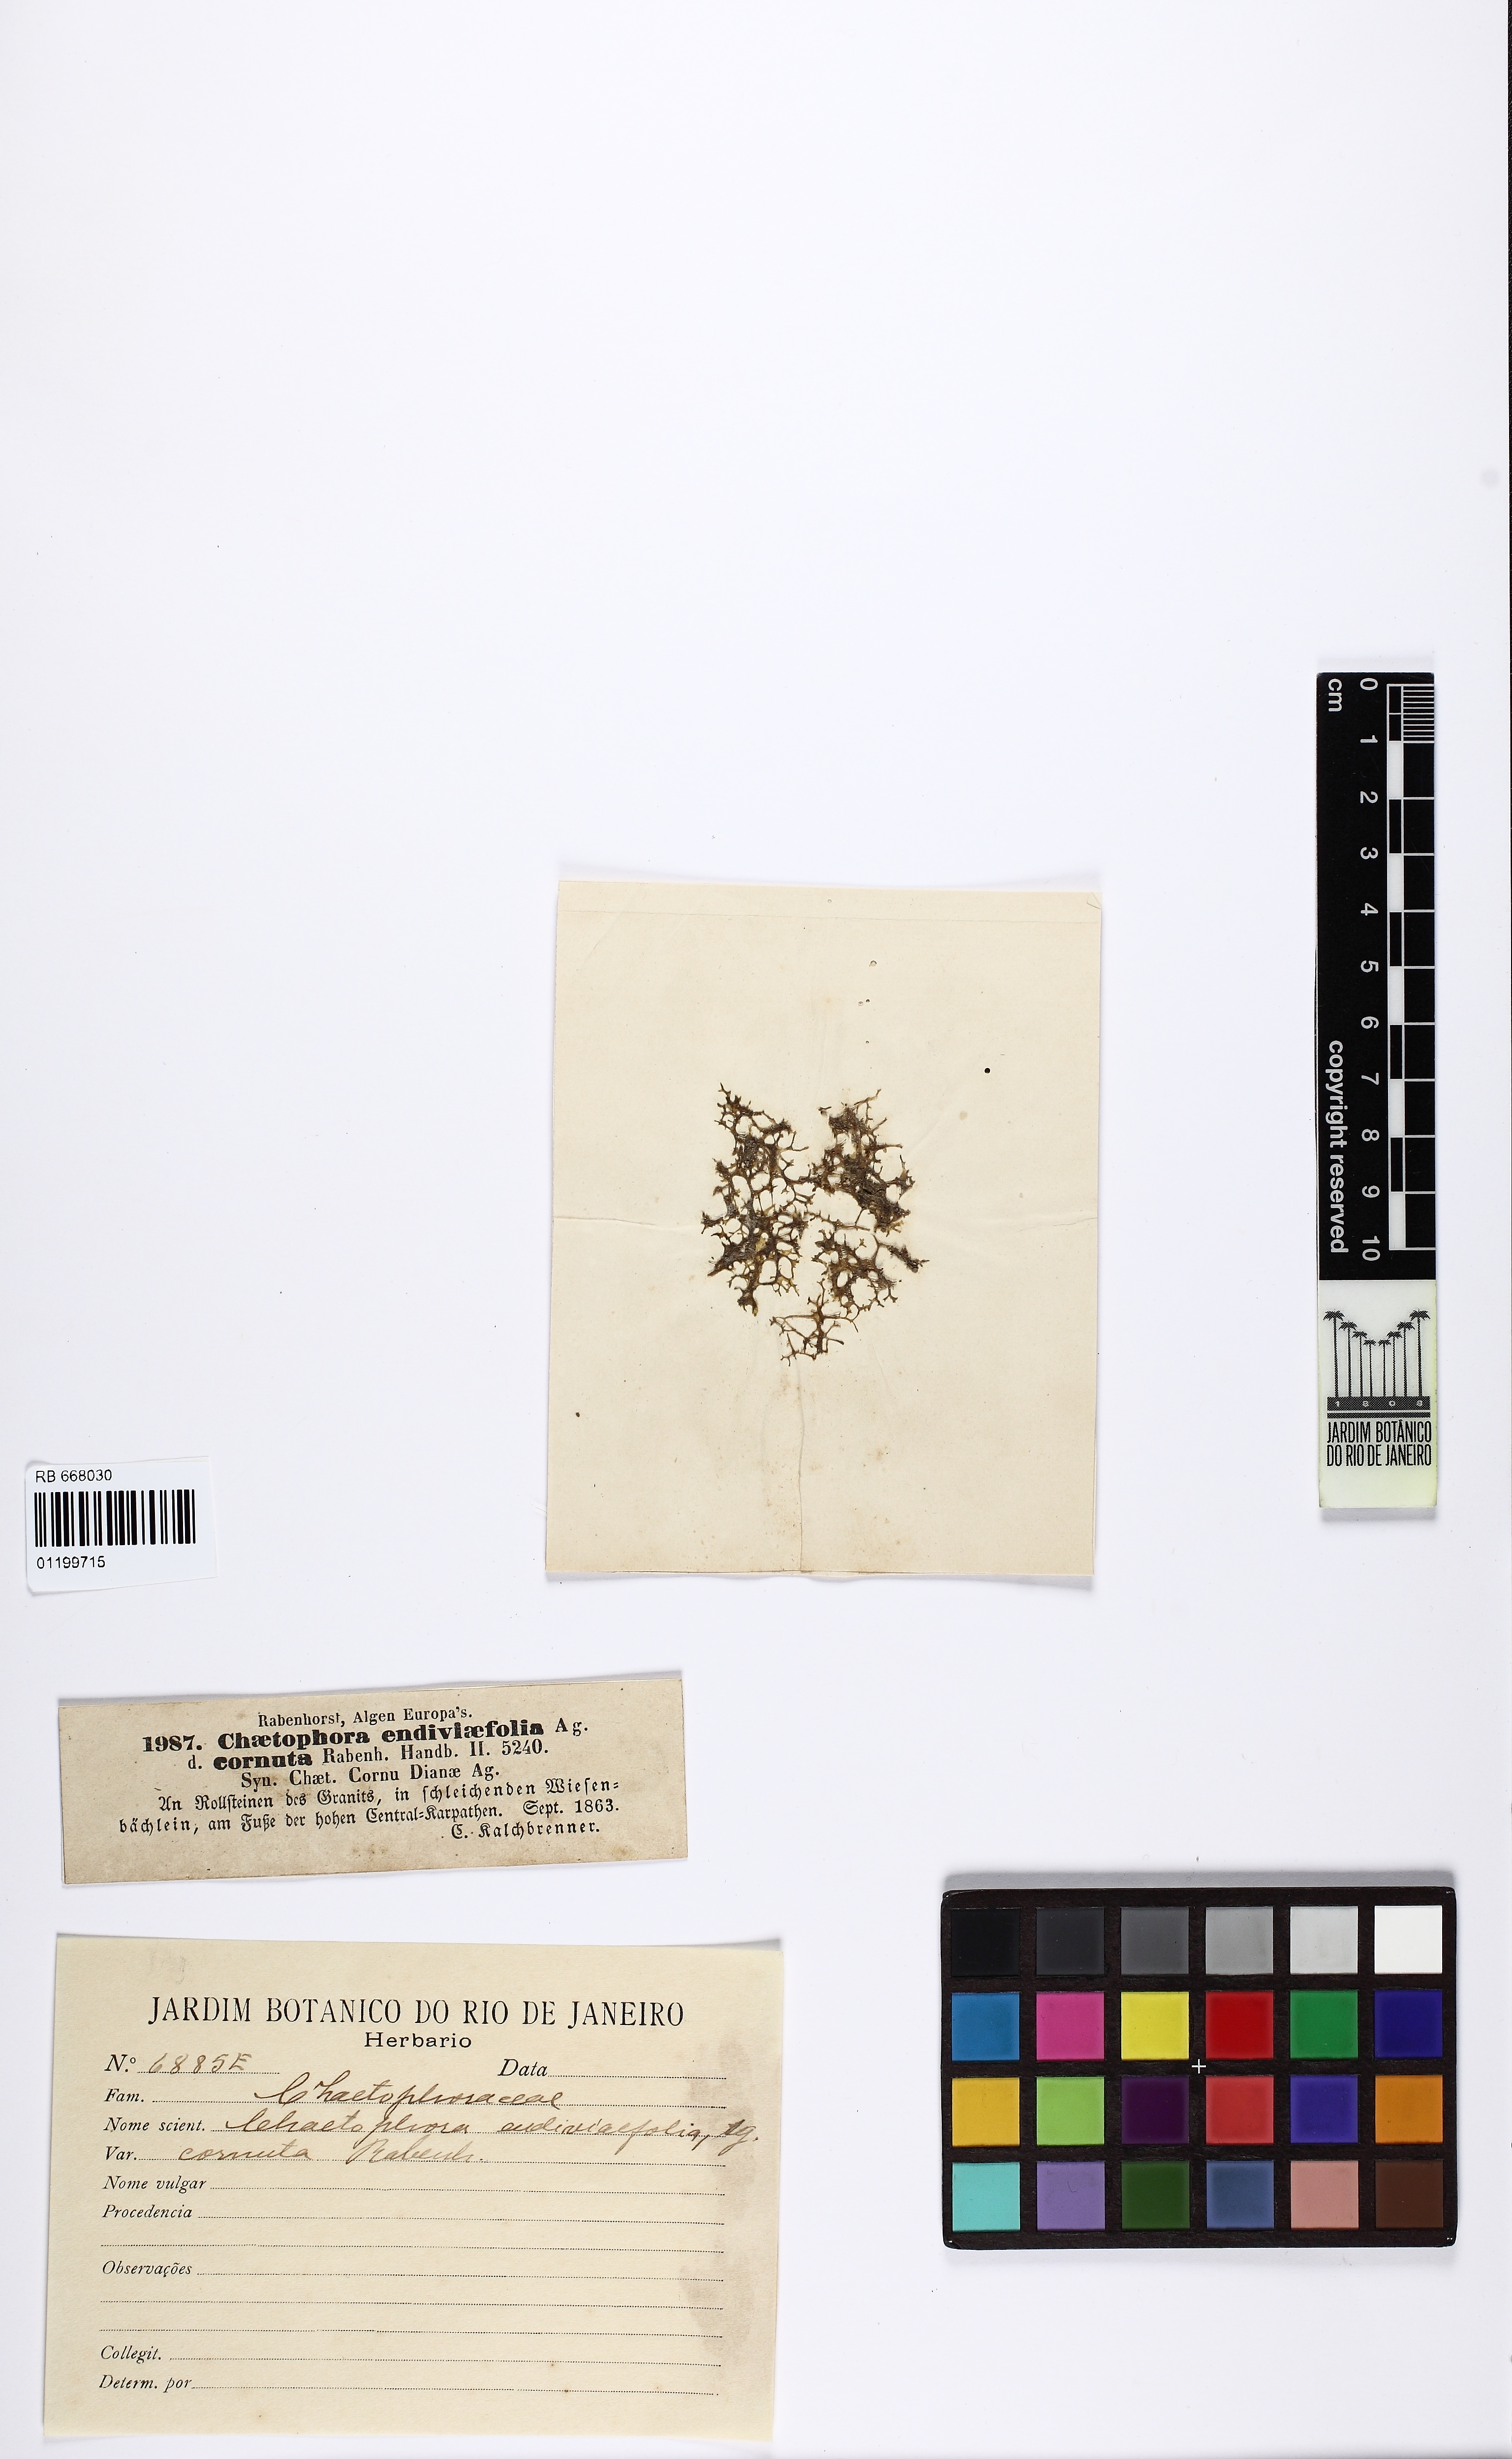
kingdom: Plantae
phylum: Tracheophyta
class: Magnoliopsida
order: Asterales
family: Asteraceae
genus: Chaetophora
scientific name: Chaetophora lobata
